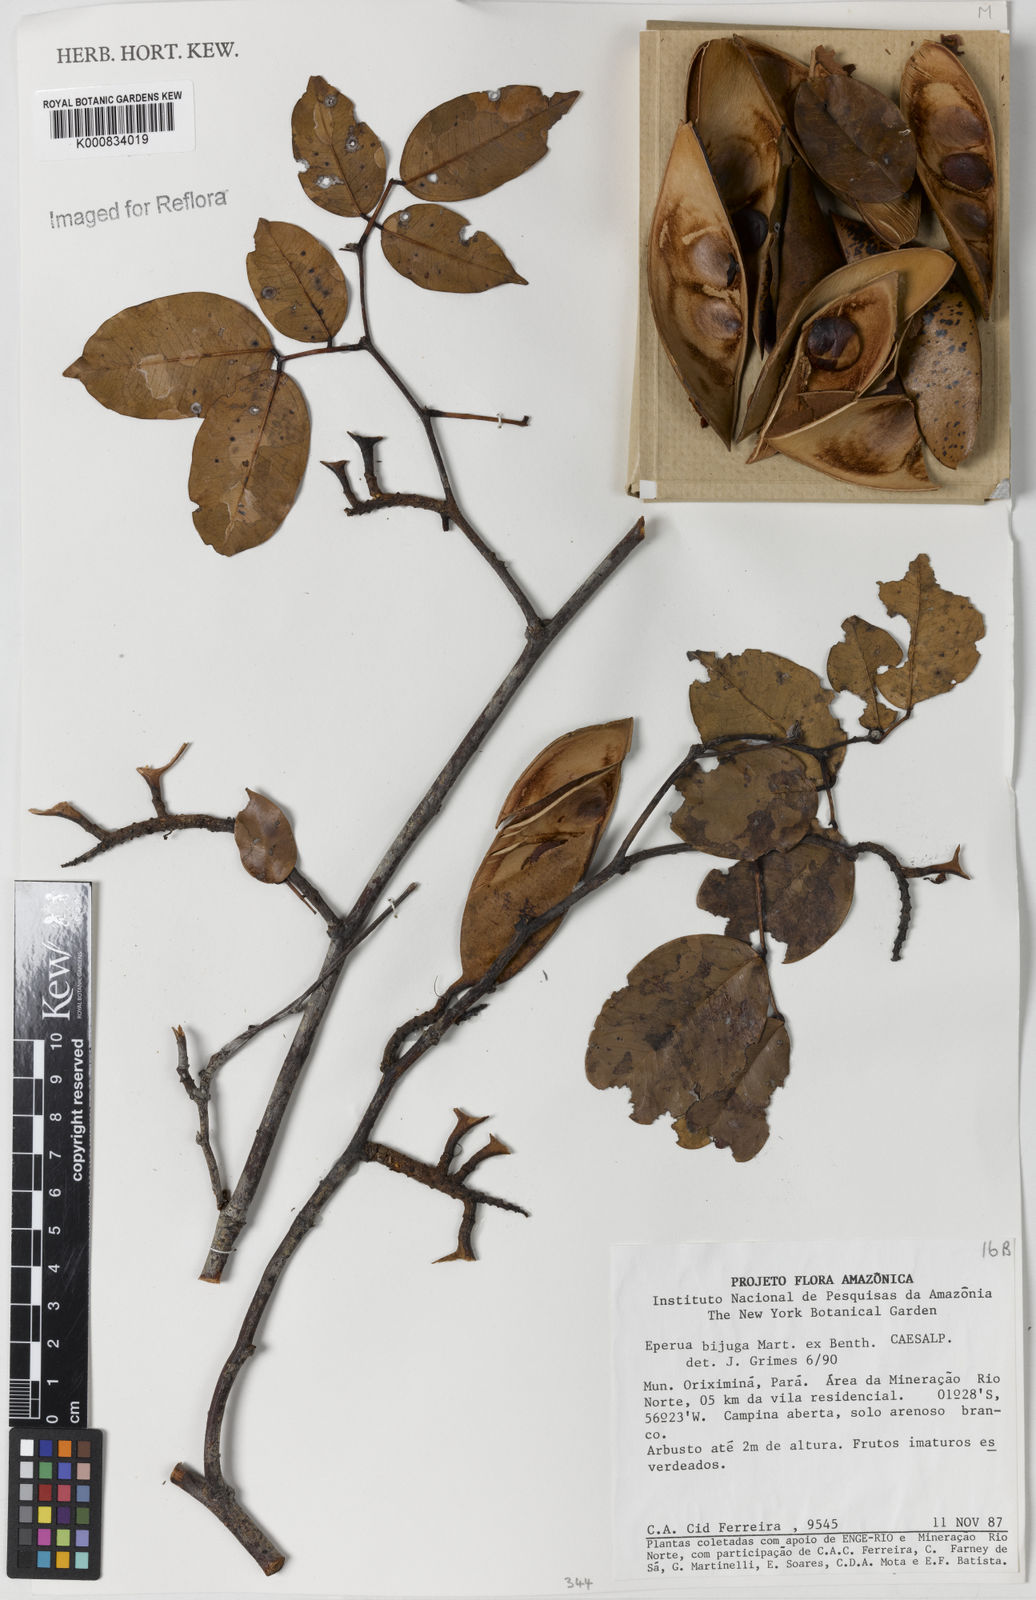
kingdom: Plantae
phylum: Tracheophyta
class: Magnoliopsida
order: Fabales
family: Fabaceae
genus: Eperua
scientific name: Eperua bijuga
